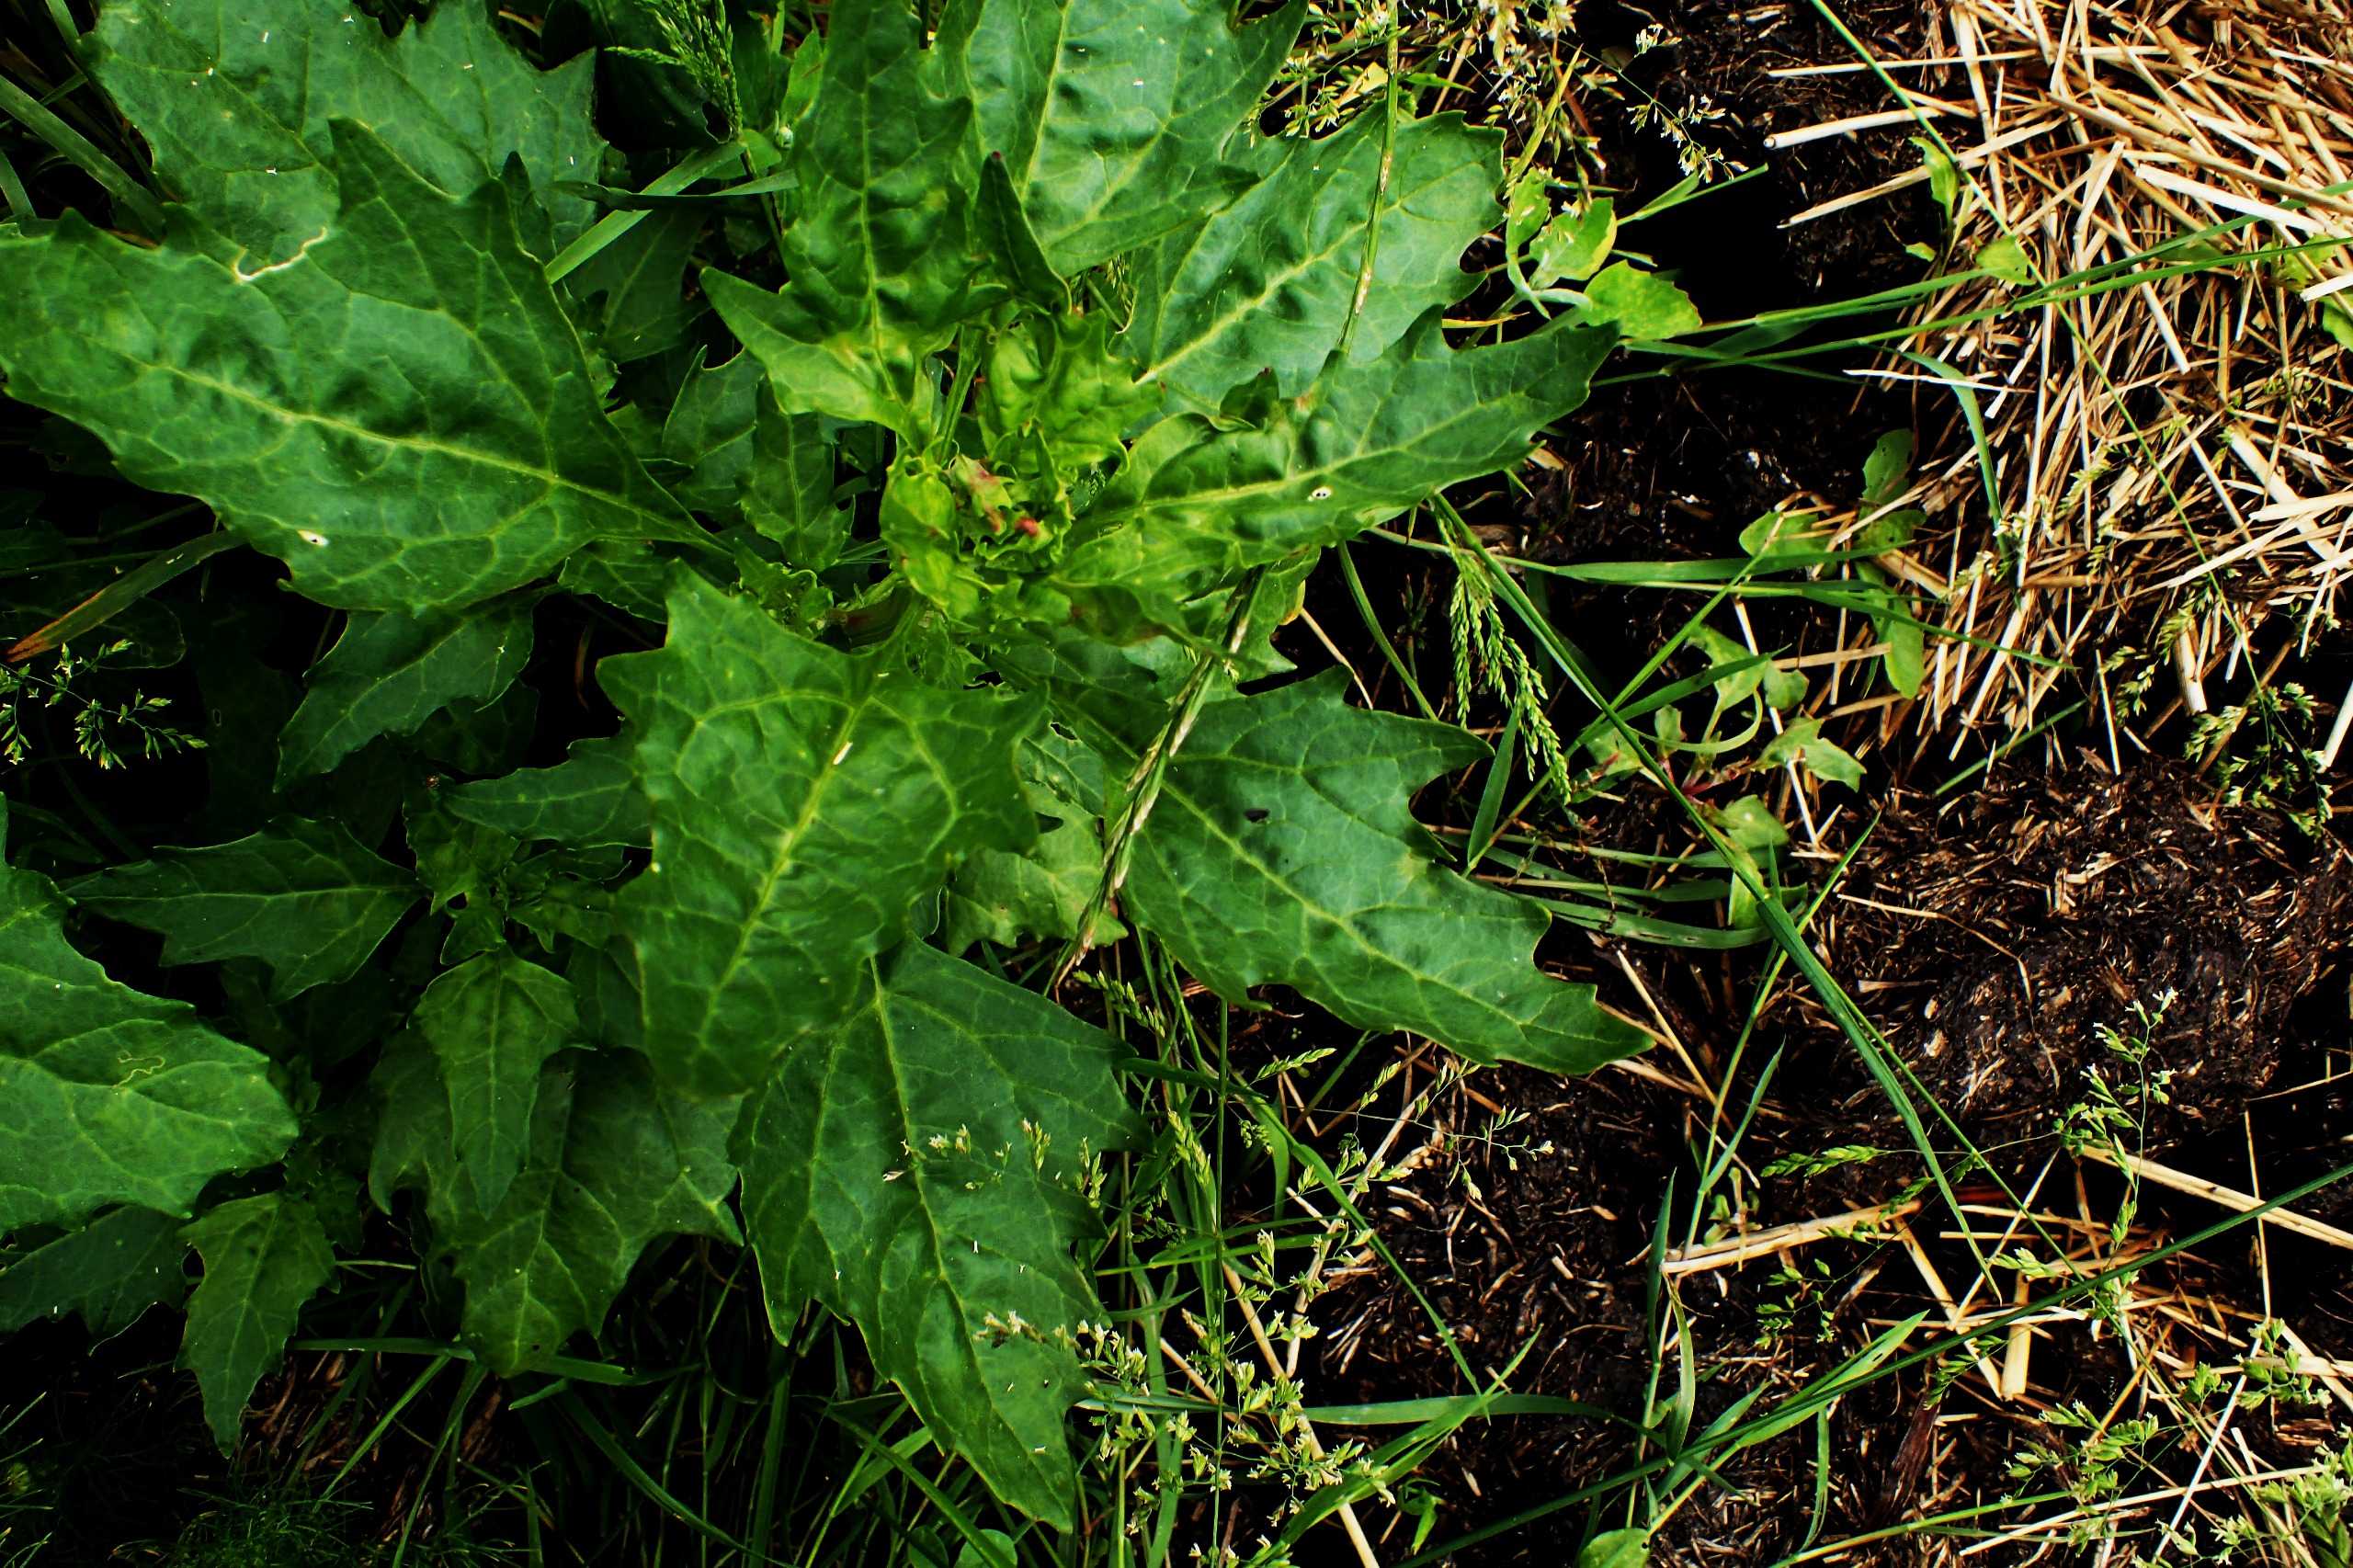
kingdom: Plantae
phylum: Tracheophyta
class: Magnoliopsida
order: Caryophyllales
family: Amaranthaceae
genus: Oxybasis
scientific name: Oxybasis rubra
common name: Rød gåsefod
